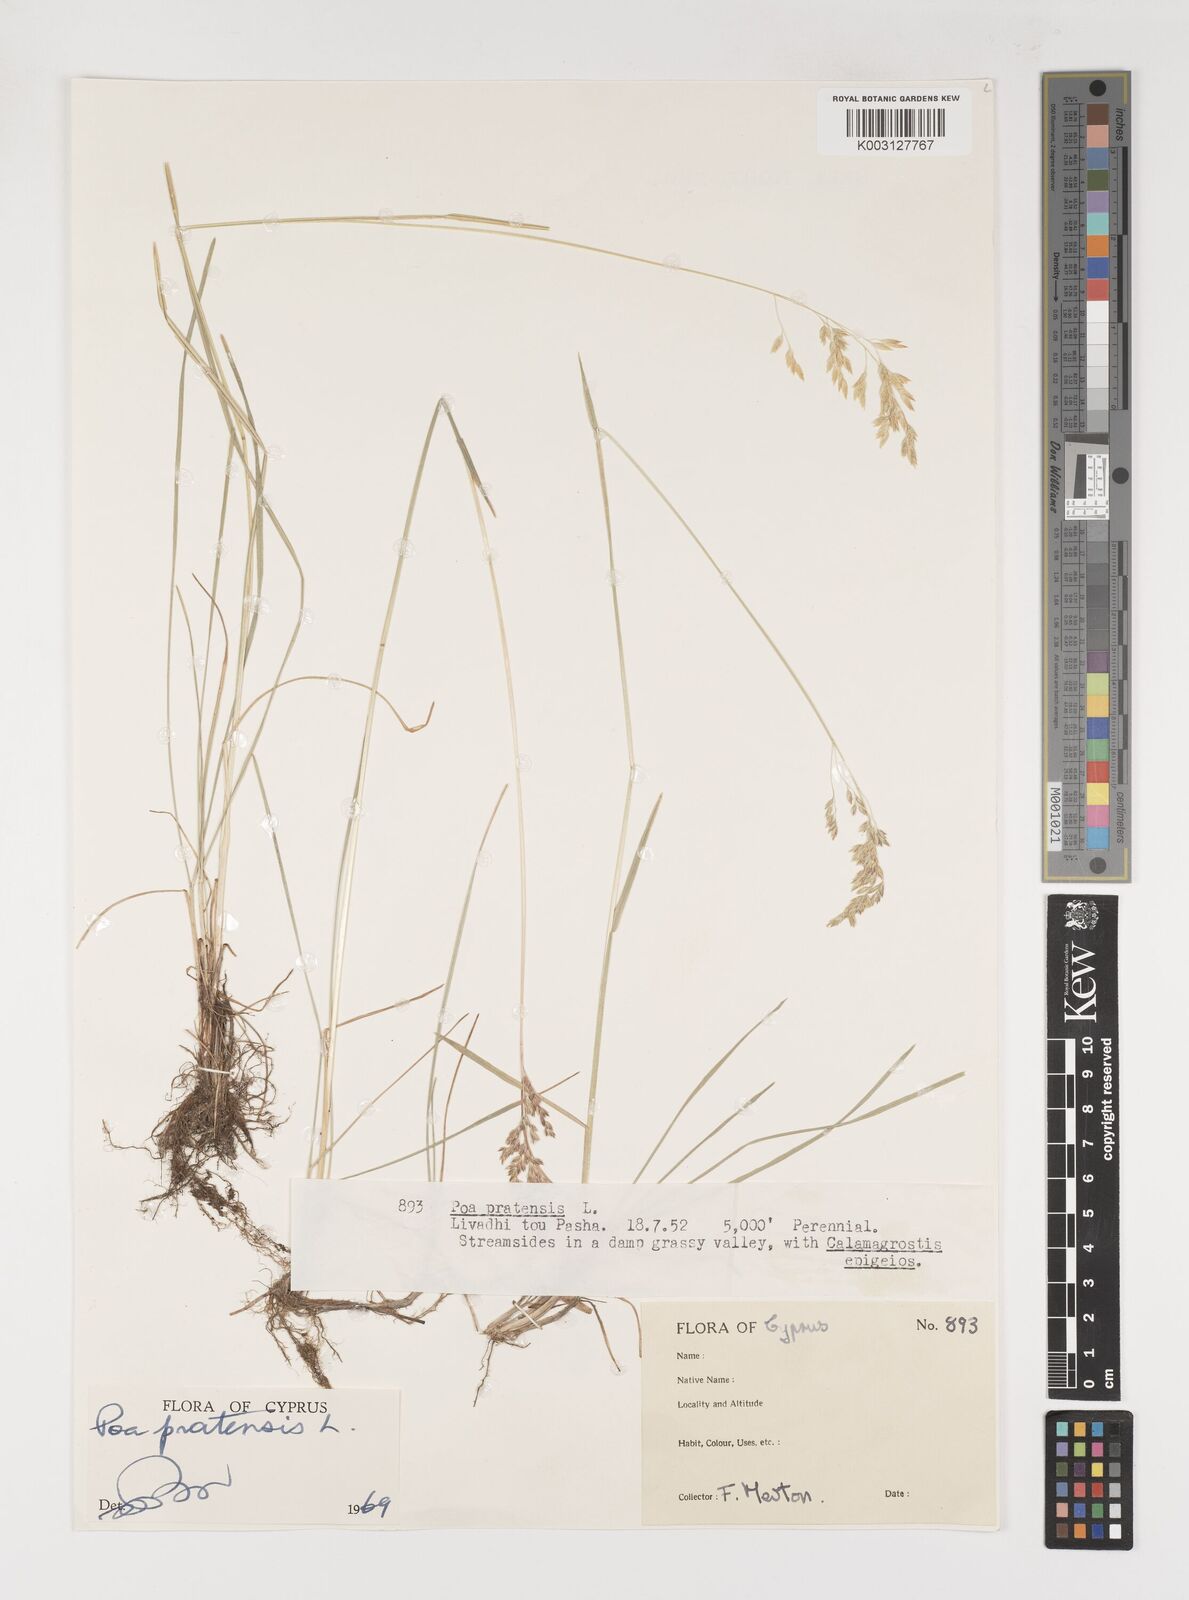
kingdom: Plantae
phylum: Tracheophyta
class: Liliopsida
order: Poales
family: Poaceae
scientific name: Poaceae
